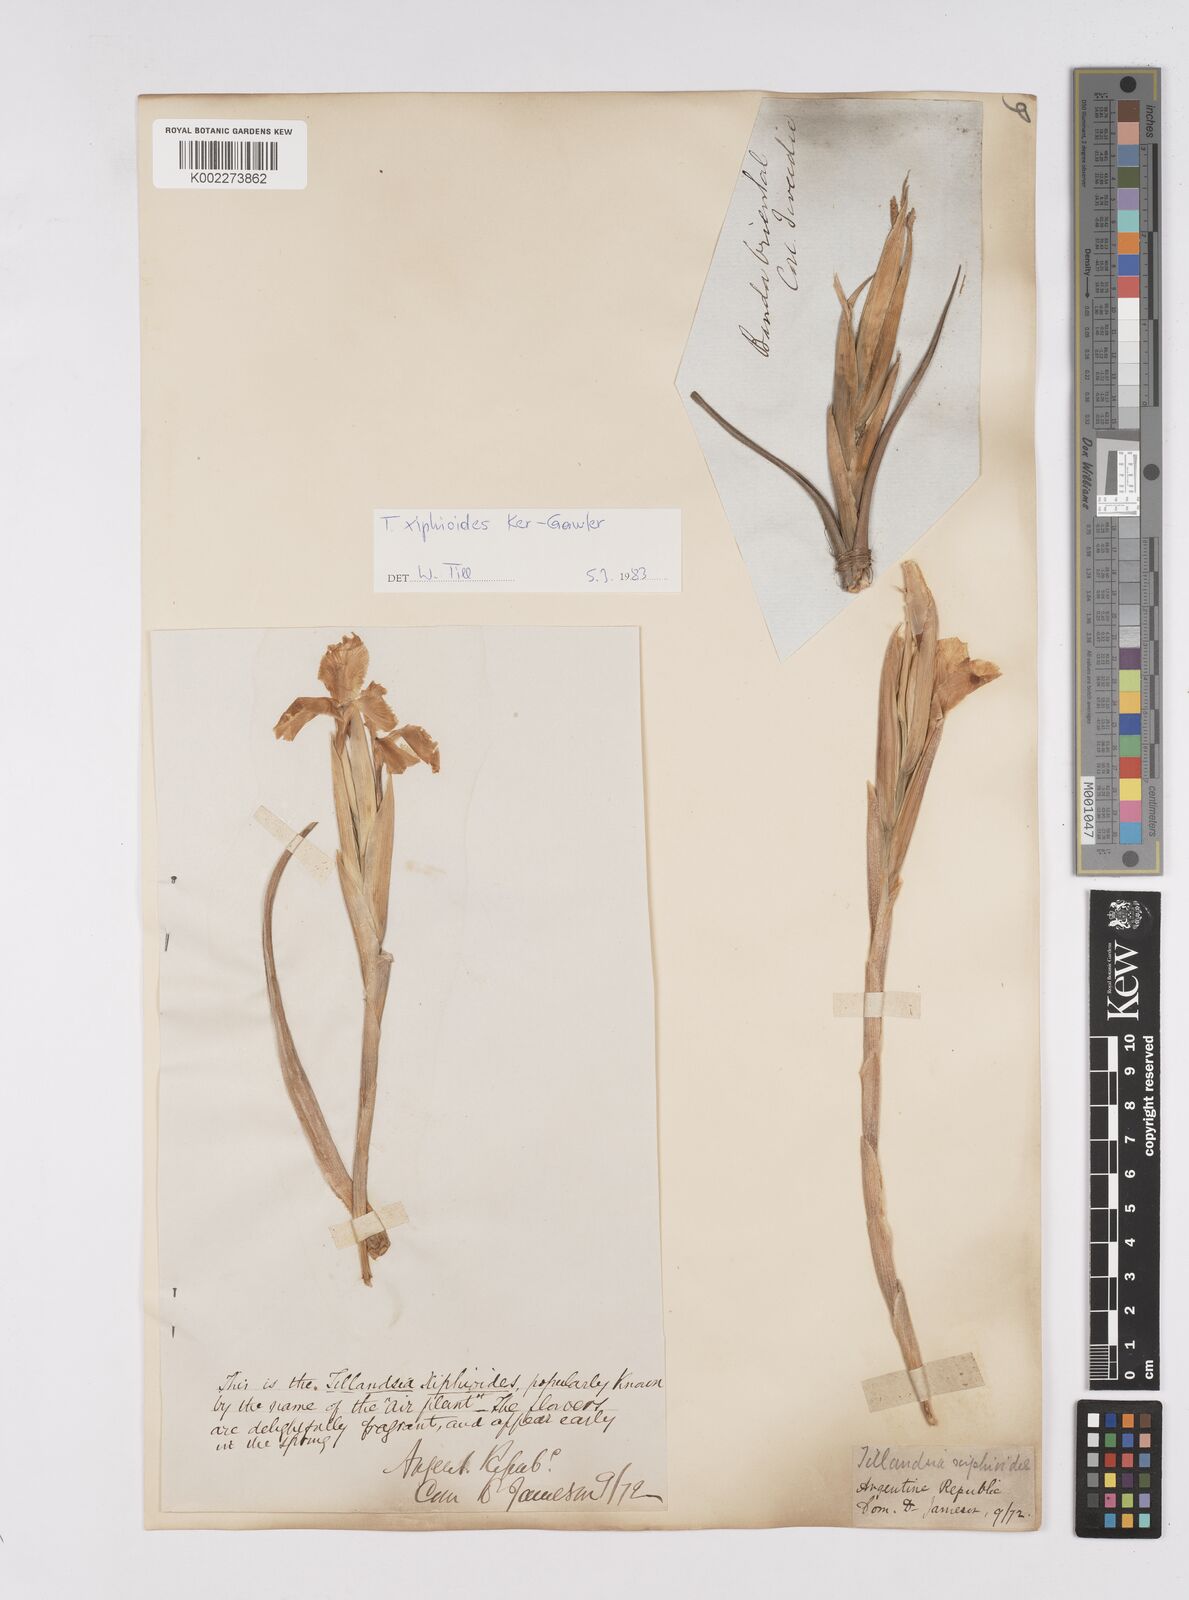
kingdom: Plantae
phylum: Tracheophyta
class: Liliopsida
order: Poales
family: Bromeliaceae
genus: Tillandsia
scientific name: Tillandsia xiphioides
